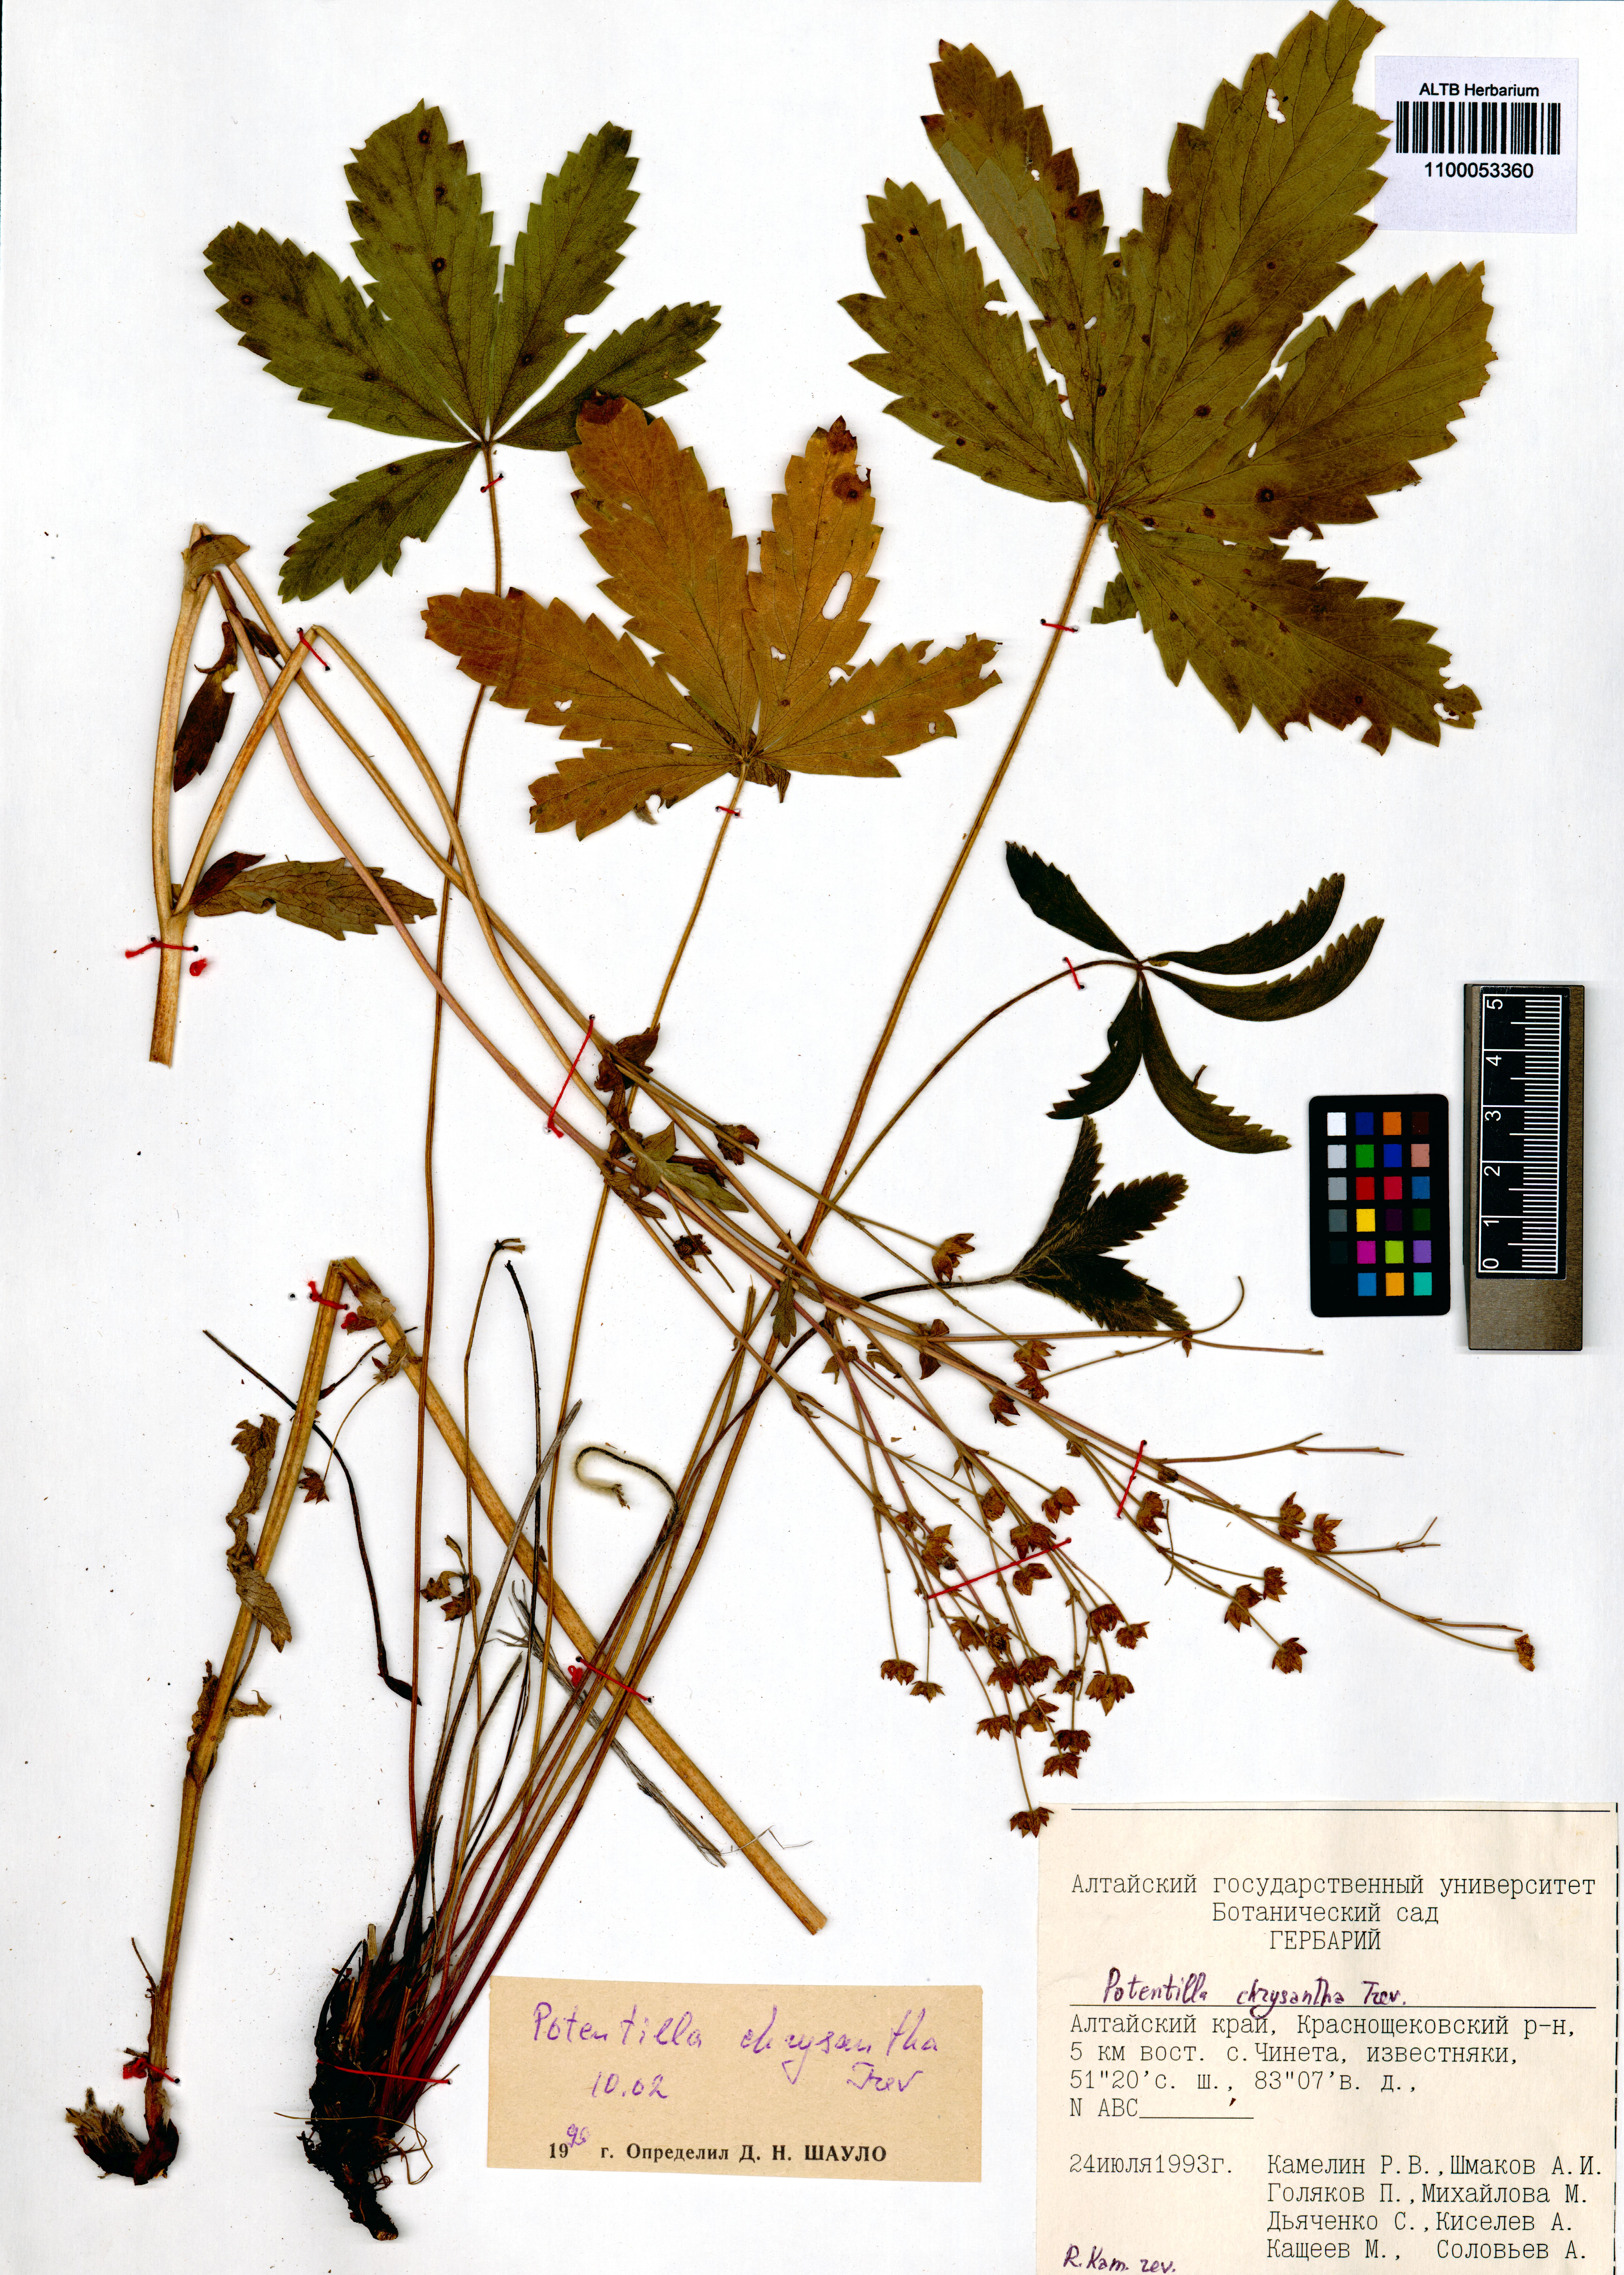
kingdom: Plantae
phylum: Tracheophyta
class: Magnoliopsida
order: Rosales
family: Rosaceae
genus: Potentilla
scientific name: Potentilla chrysantha
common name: Thuringian cinquefoil
